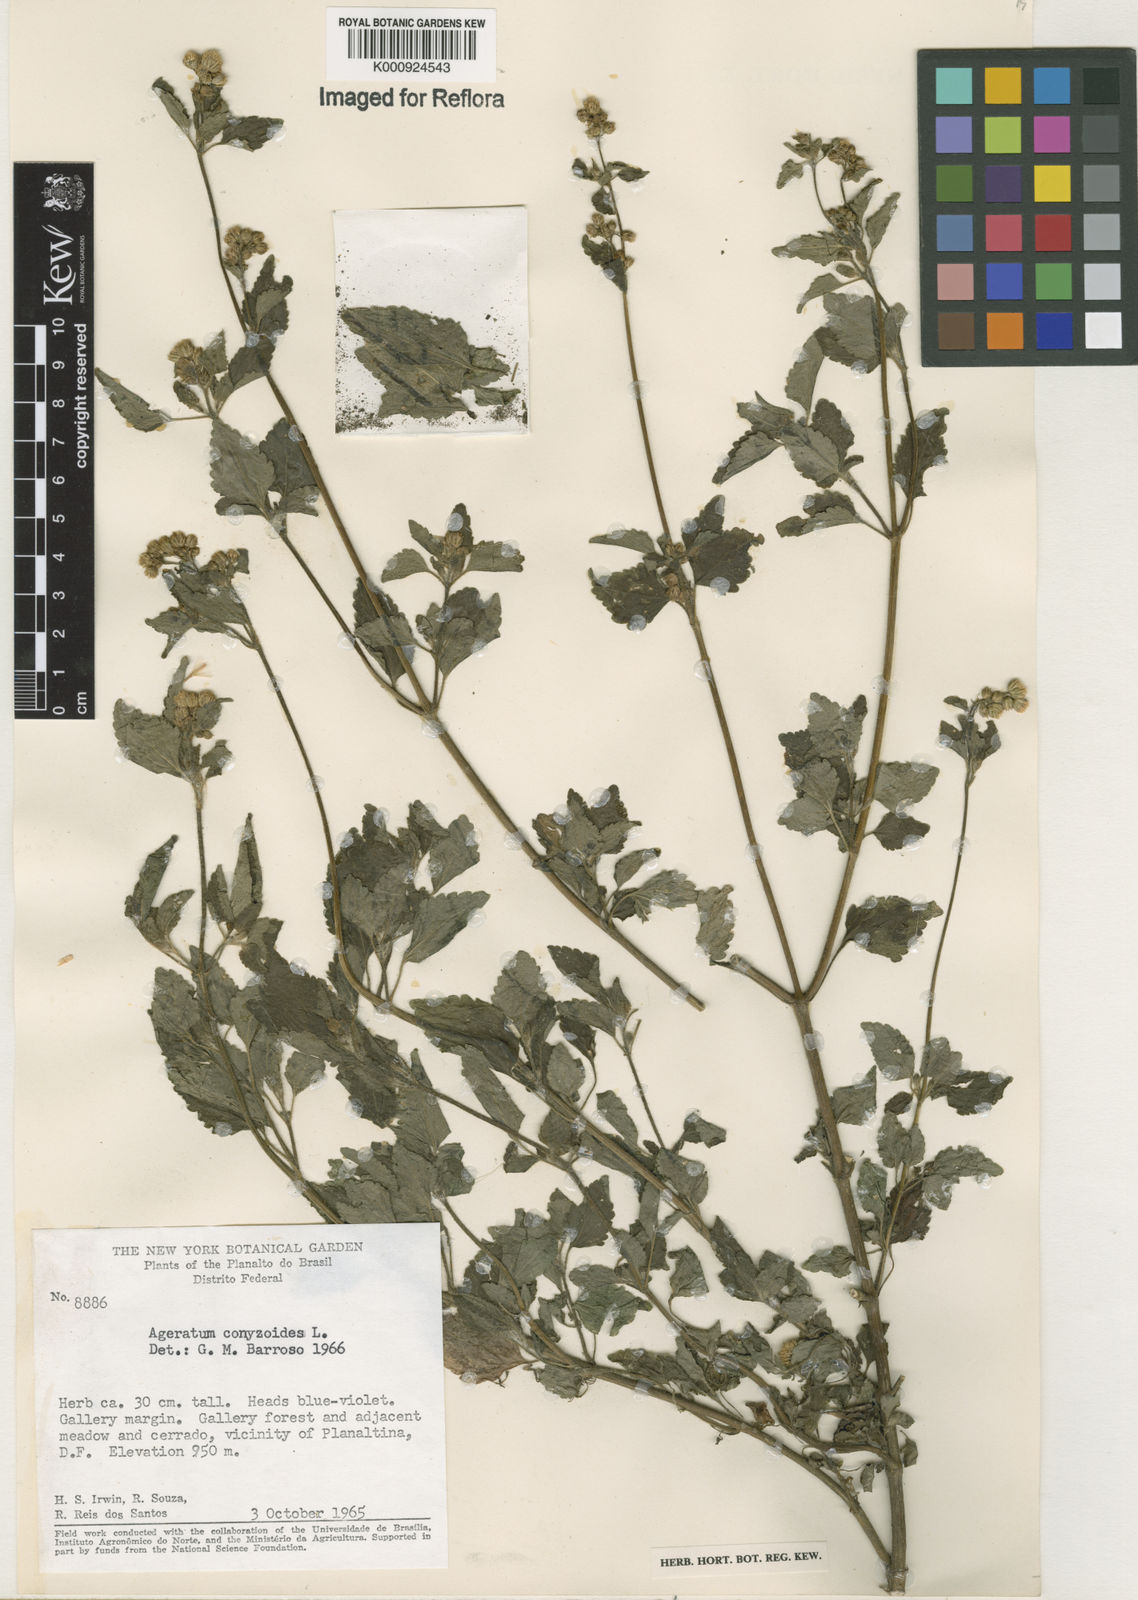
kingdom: Plantae
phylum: Tracheophyta
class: Magnoliopsida
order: Asterales
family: Asteraceae
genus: Ageratum
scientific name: Ageratum conyzoides
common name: Tropical whiteweed
